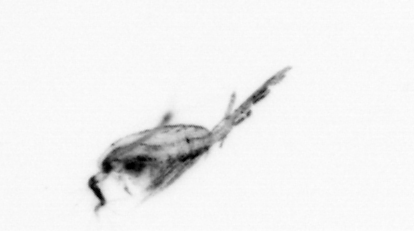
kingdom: Animalia
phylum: Arthropoda
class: Copepoda
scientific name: Copepoda
